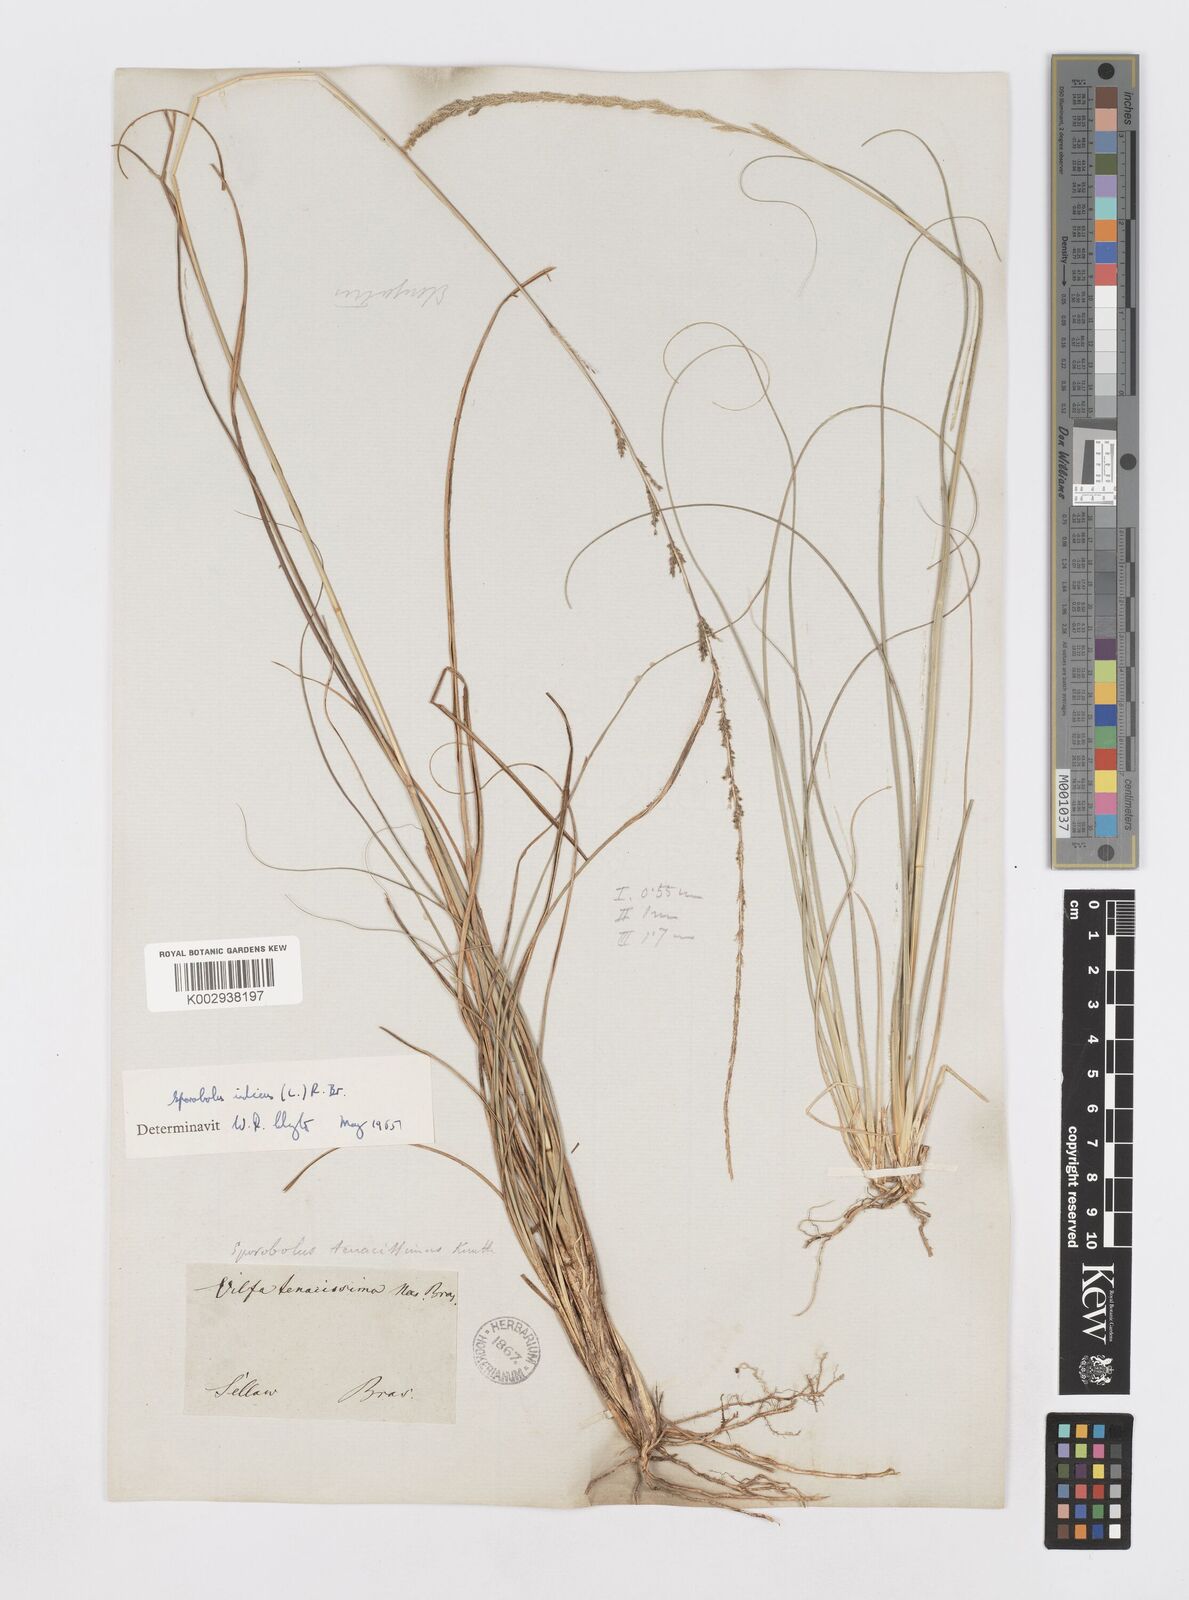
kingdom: Plantae
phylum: Tracheophyta
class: Liliopsida
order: Poales
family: Poaceae
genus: Sporobolus
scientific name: Sporobolus indicus
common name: Smut grass
